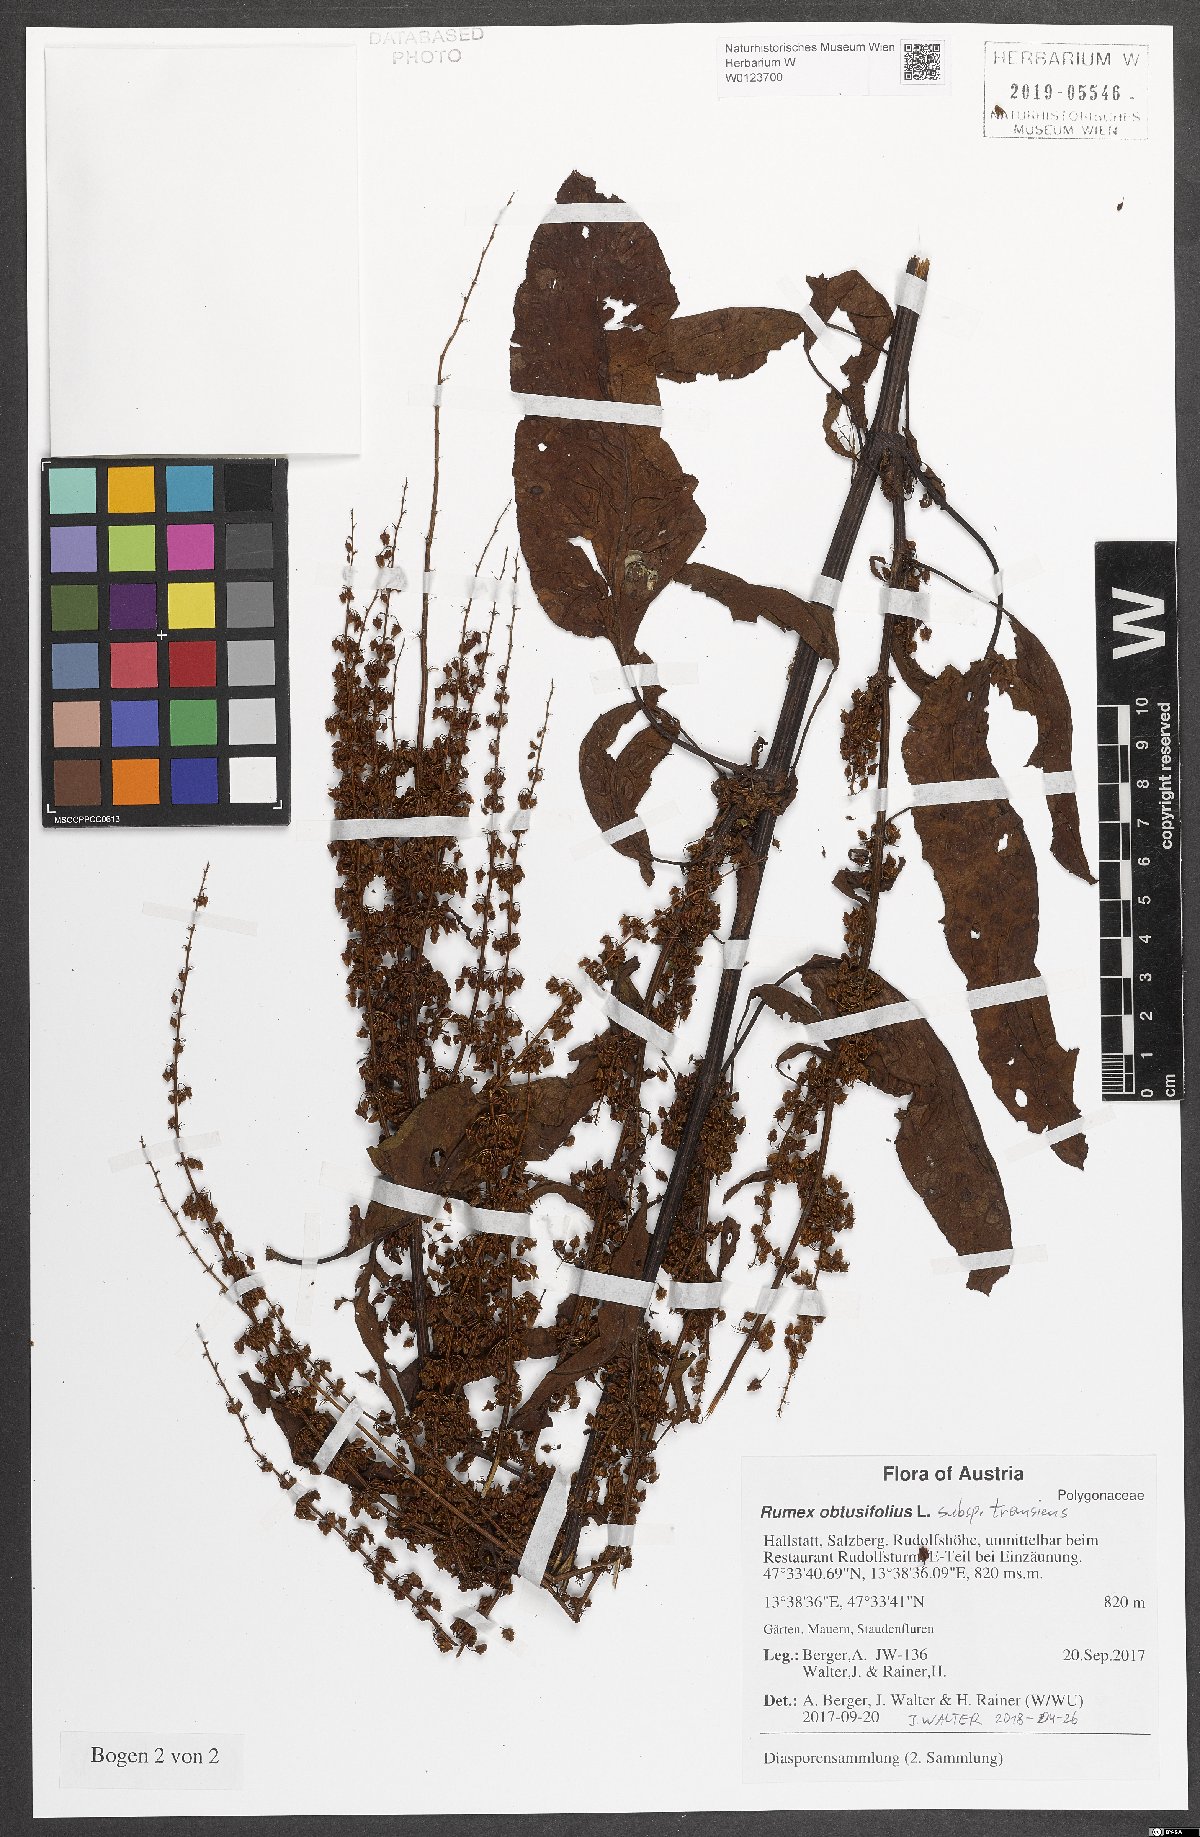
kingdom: Plantae
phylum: Tracheophyta
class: Magnoliopsida
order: Caryophyllales
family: Polygonaceae
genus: Rumex
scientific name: Rumex obtusifolius
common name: Bitter dock
